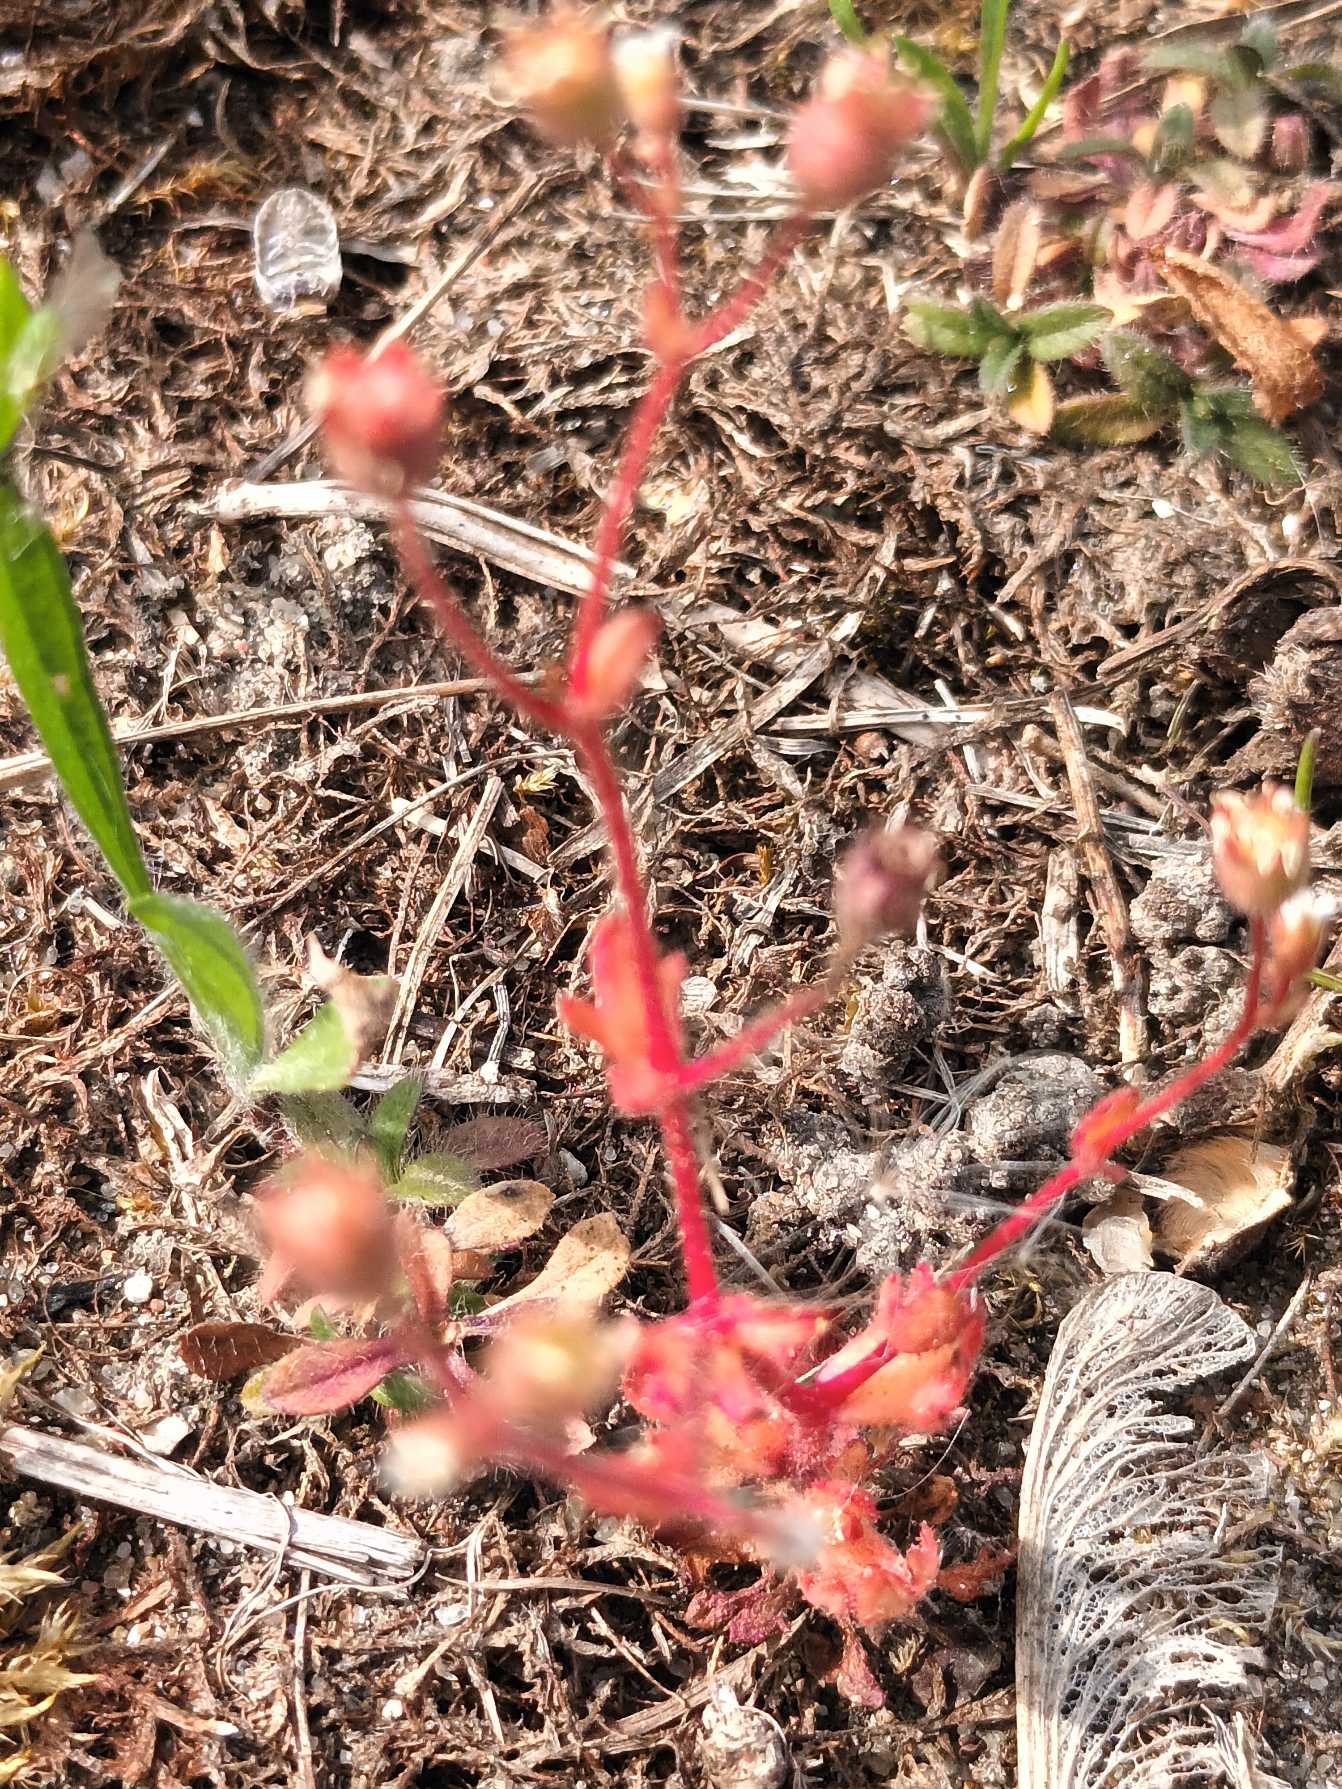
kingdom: Plantae
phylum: Tracheophyta
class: Magnoliopsida
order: Saxifragales
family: Saxifragaceae
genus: Saxifraga
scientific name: Saxifraga tridactylites
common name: Trekløft-stenbræk
